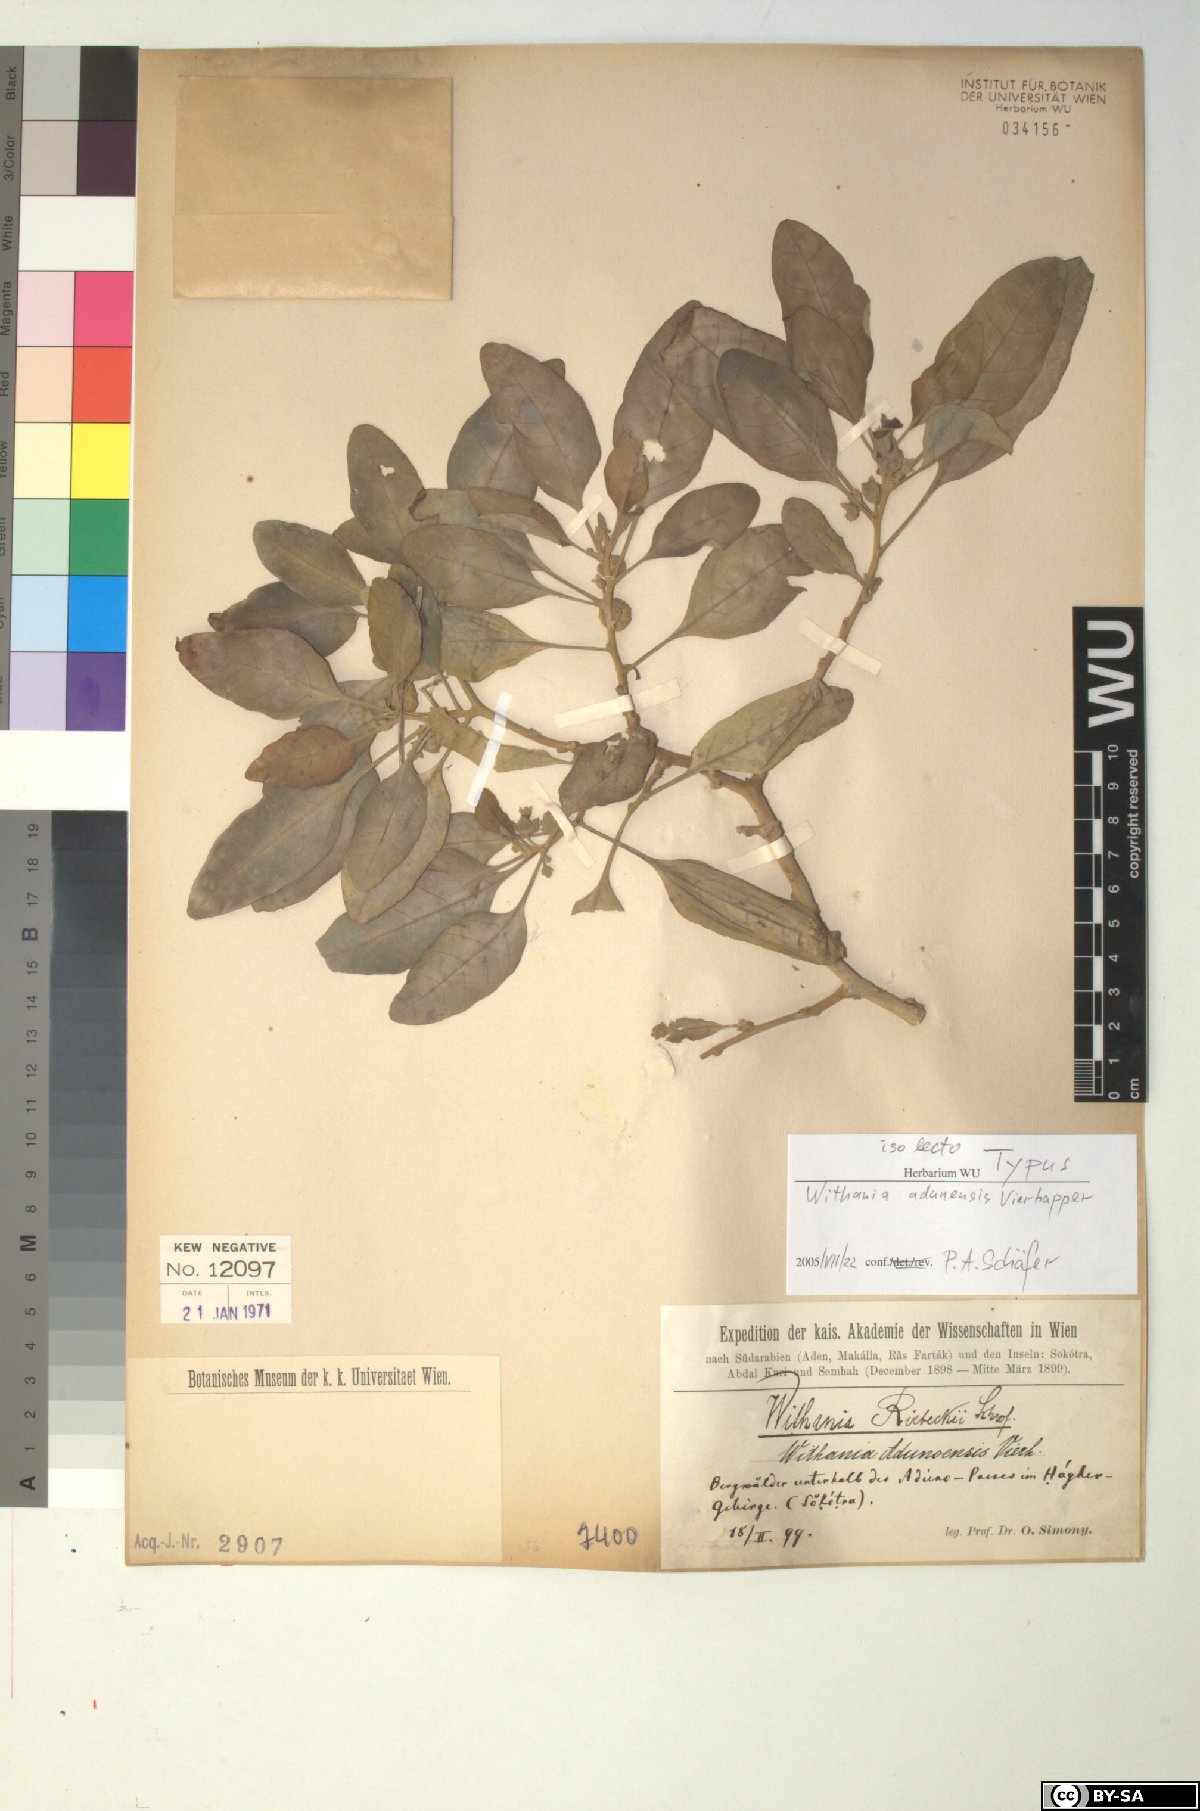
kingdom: Plantae
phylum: Tracheophyta
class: Magnoliopsida
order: Solanales
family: Solanaceae
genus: Withania
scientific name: Withania adunensis
